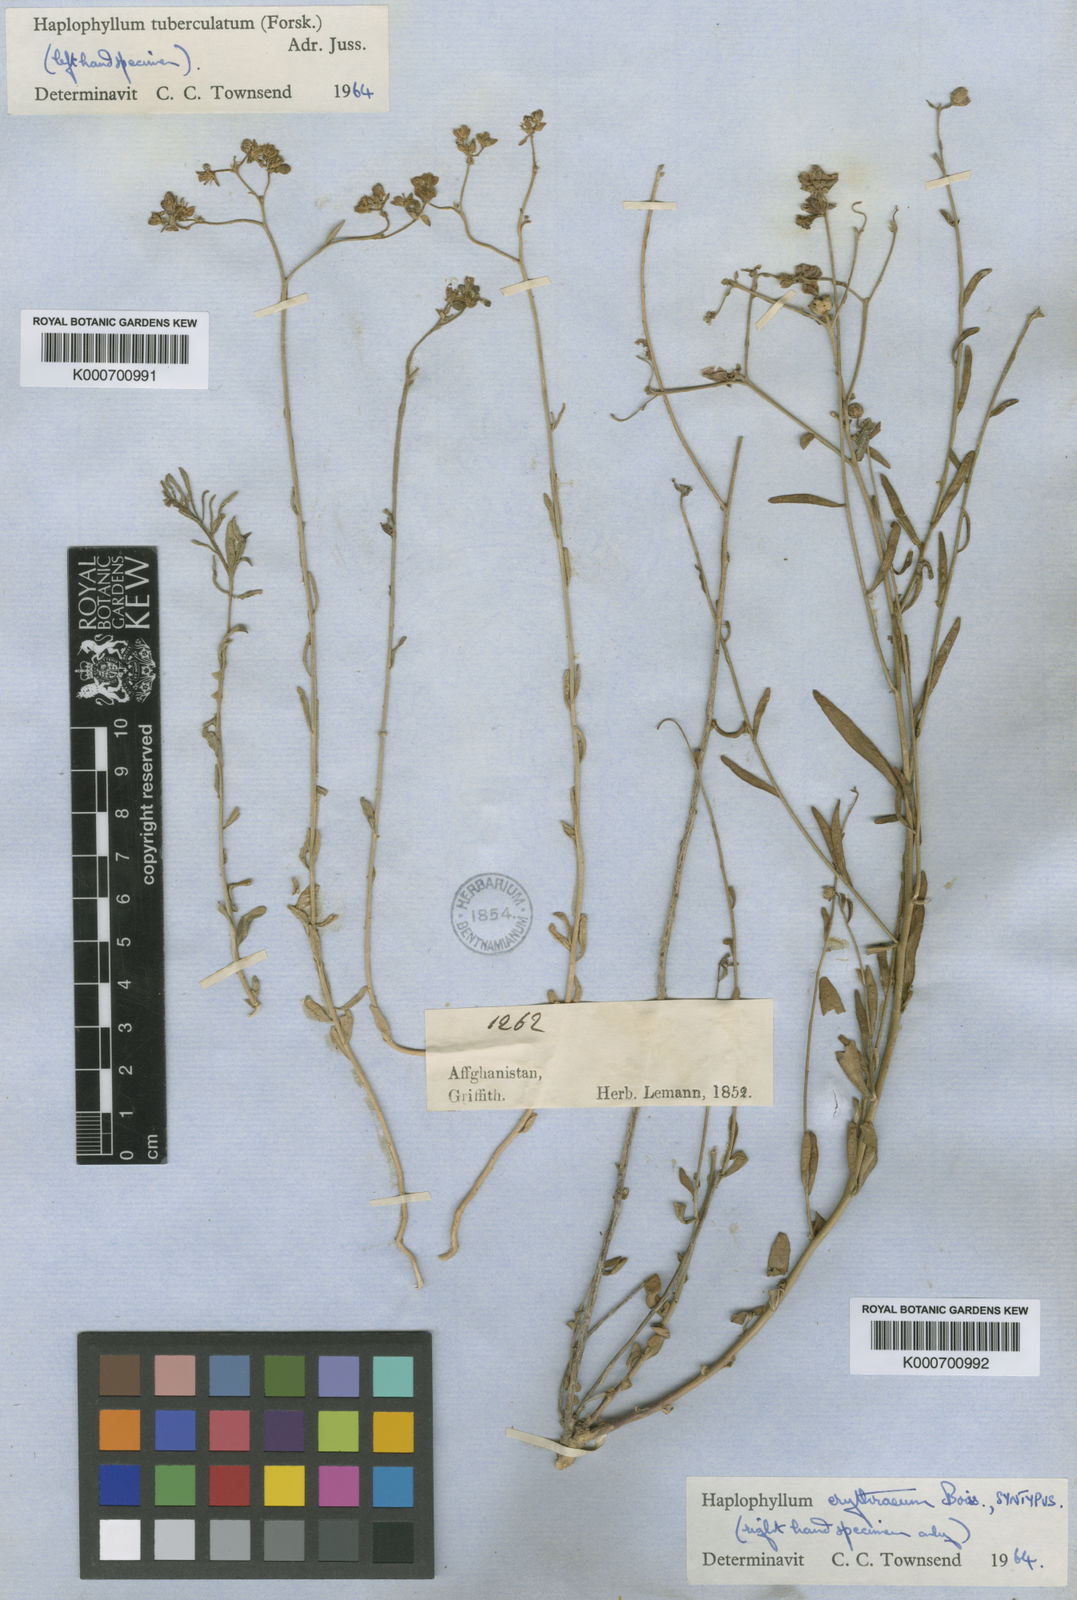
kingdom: Plantae
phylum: Tracheophyta
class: Magnoliopsida
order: Sapindales
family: Rutaceae
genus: Haplophyllum
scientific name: Haplophyllum erythraeum
